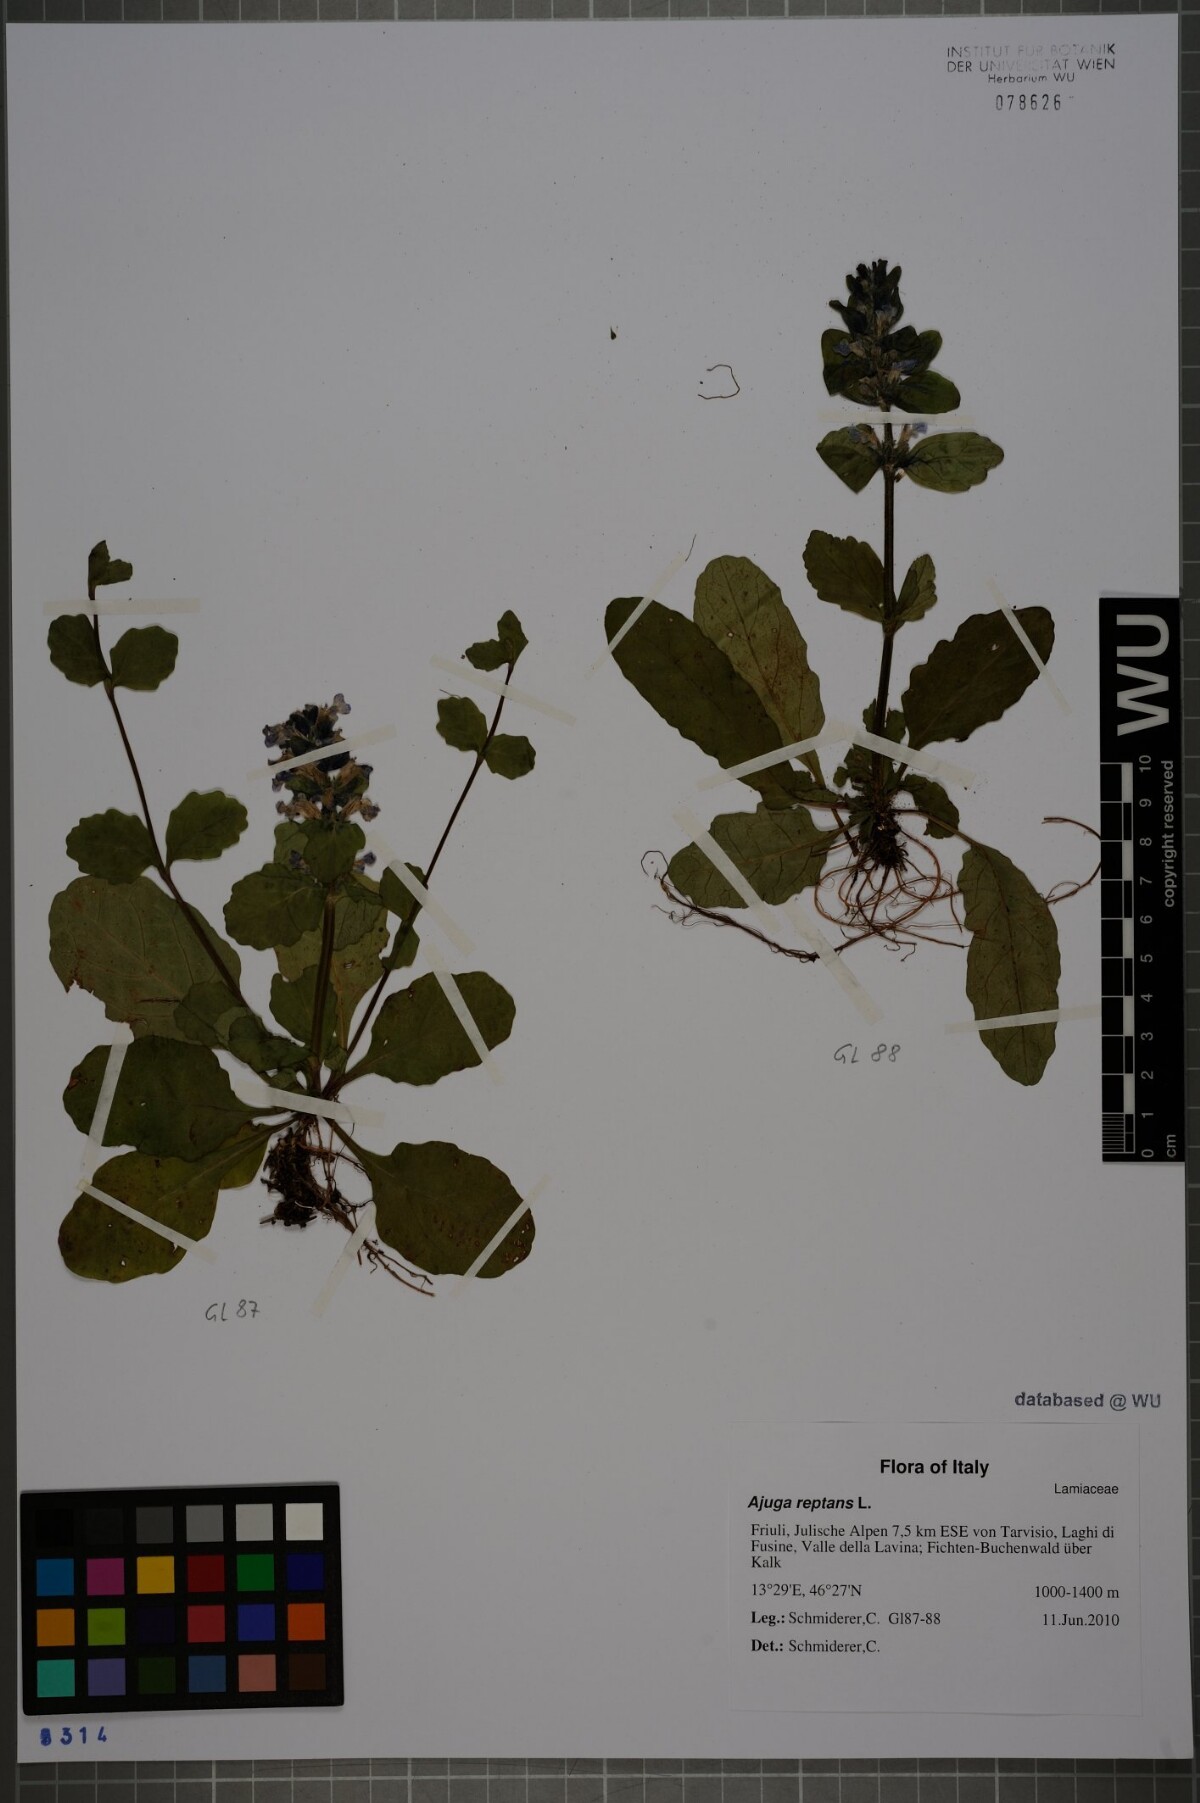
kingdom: Plantae
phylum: Tracheophyta
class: Magnoliopsida
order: Lamiales
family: Lamiaceae
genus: Ajuga
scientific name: Ajuga reptans
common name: Bugle
